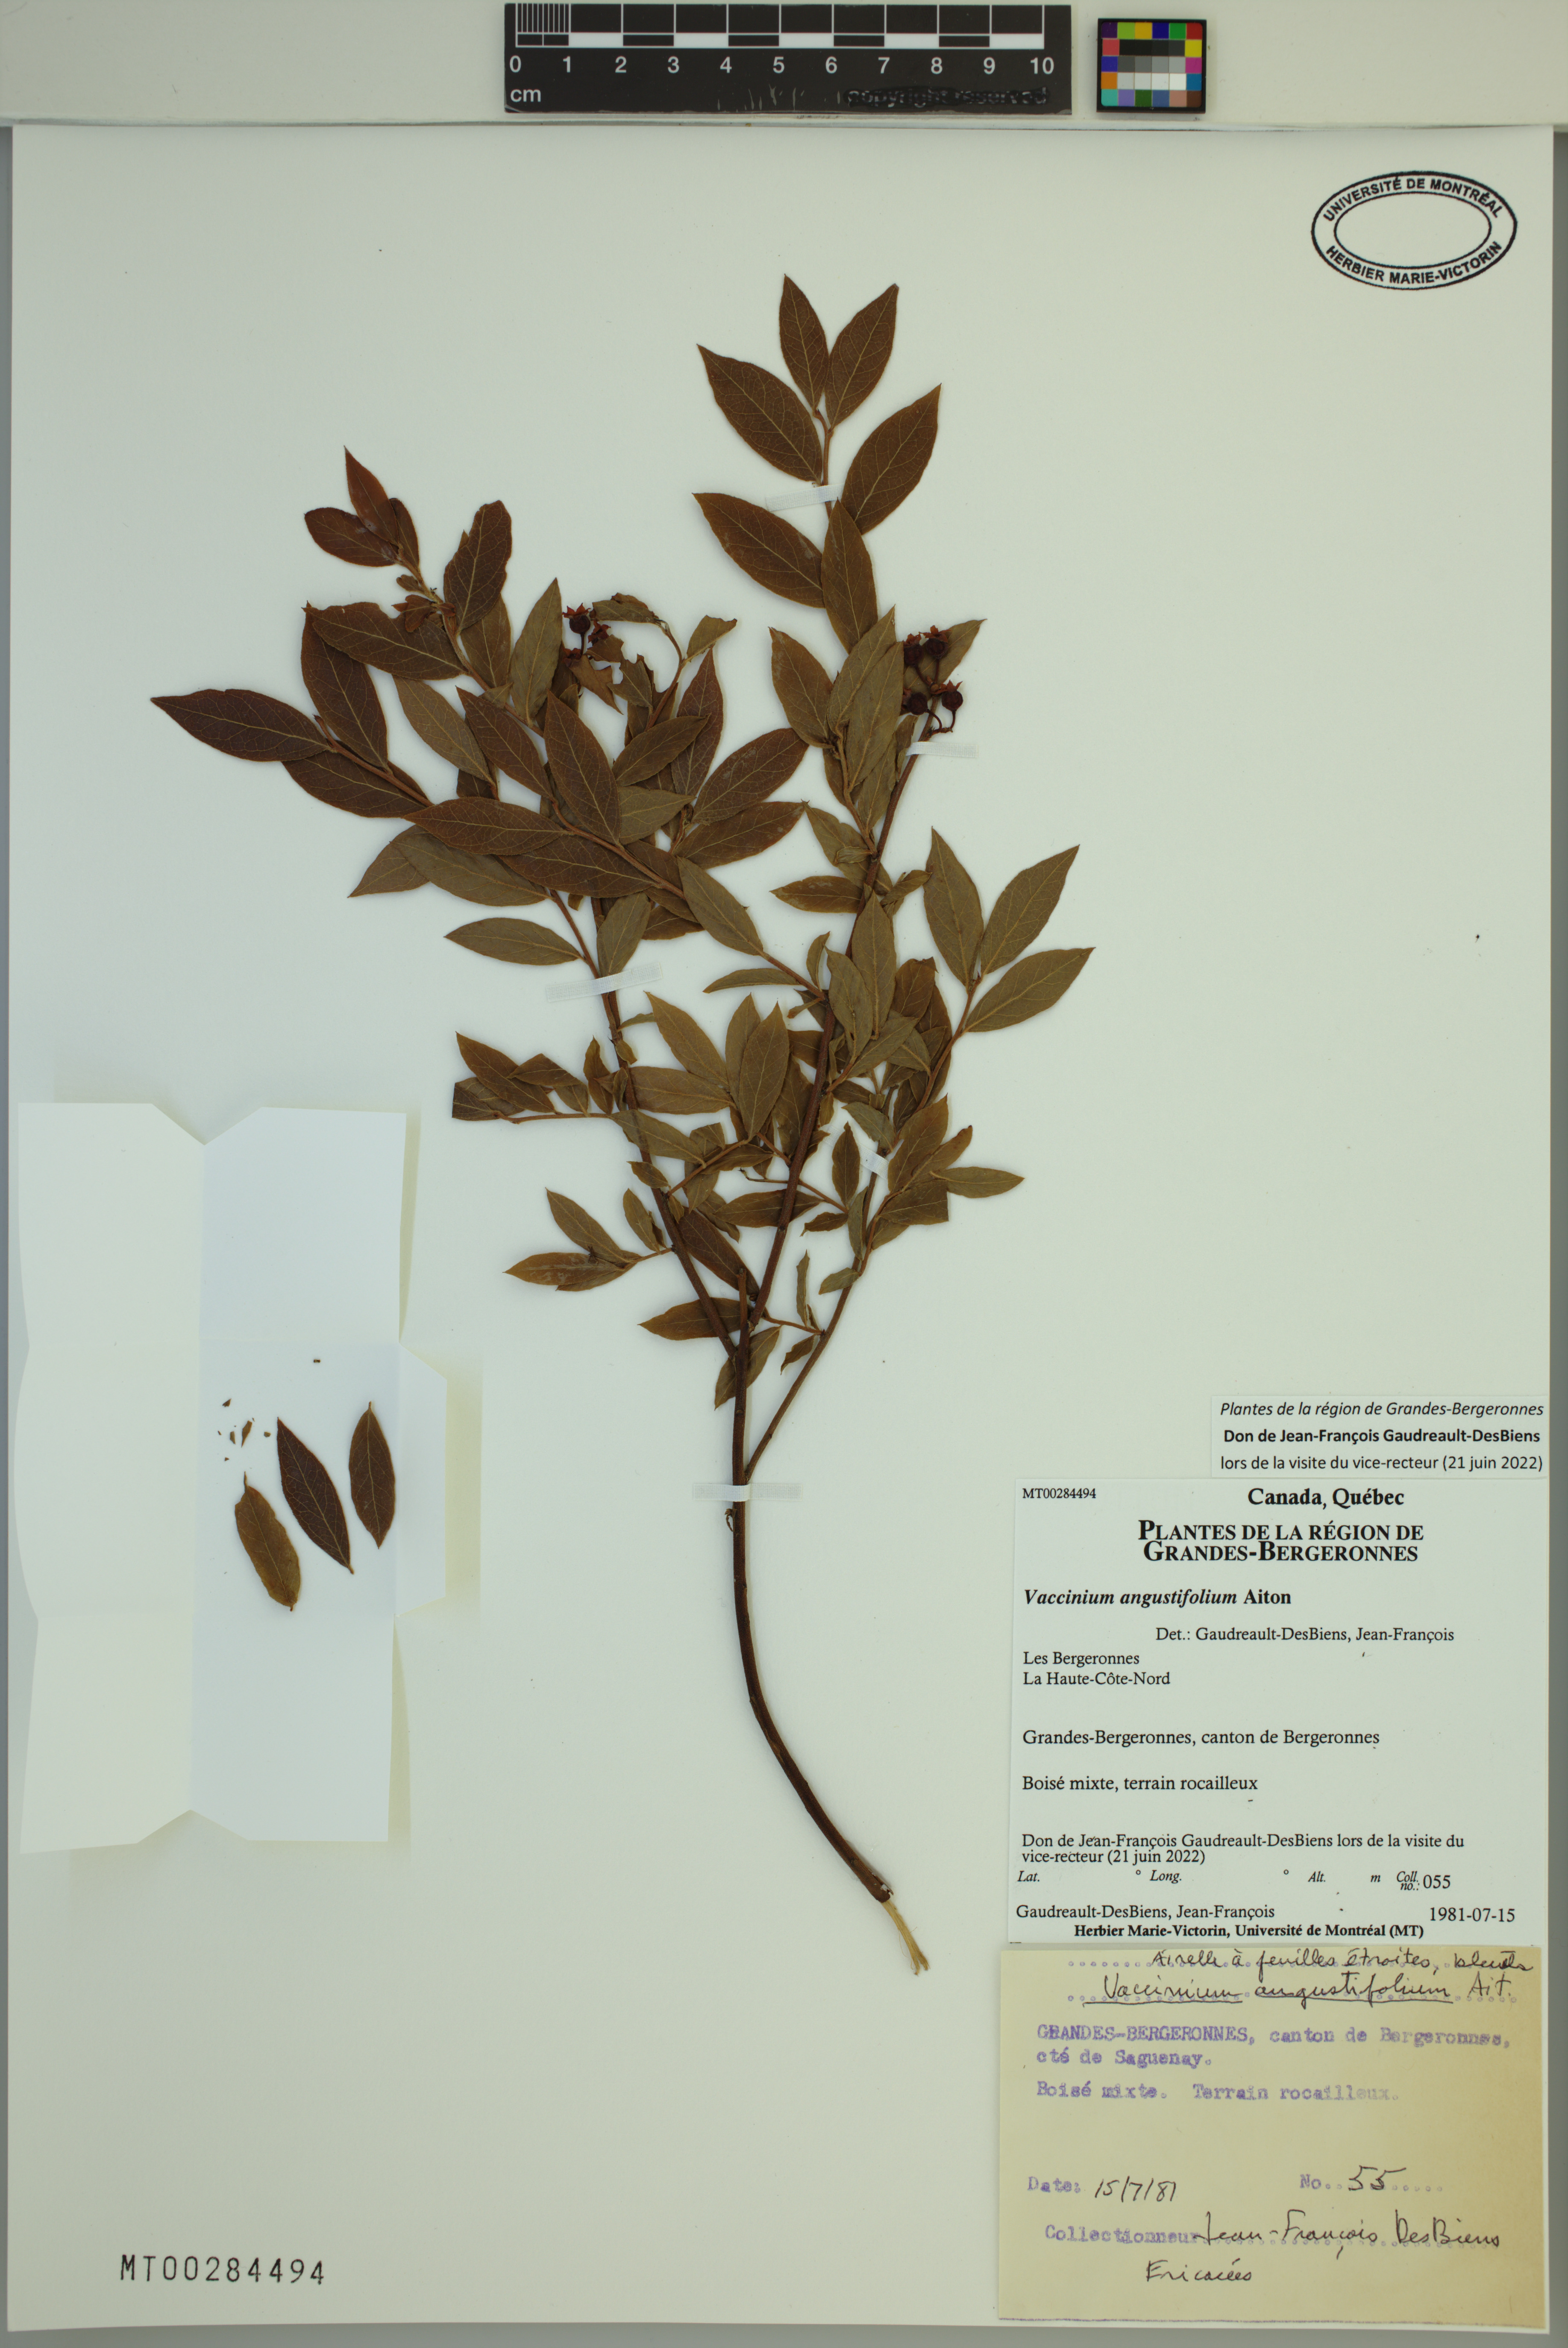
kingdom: Plantae
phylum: Tracheophyta
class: Magnoliopsida
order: Ericales
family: Ericaceae
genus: Vaccinium
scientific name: Vaccinium angustifolium
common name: Early lowbush blueberry
